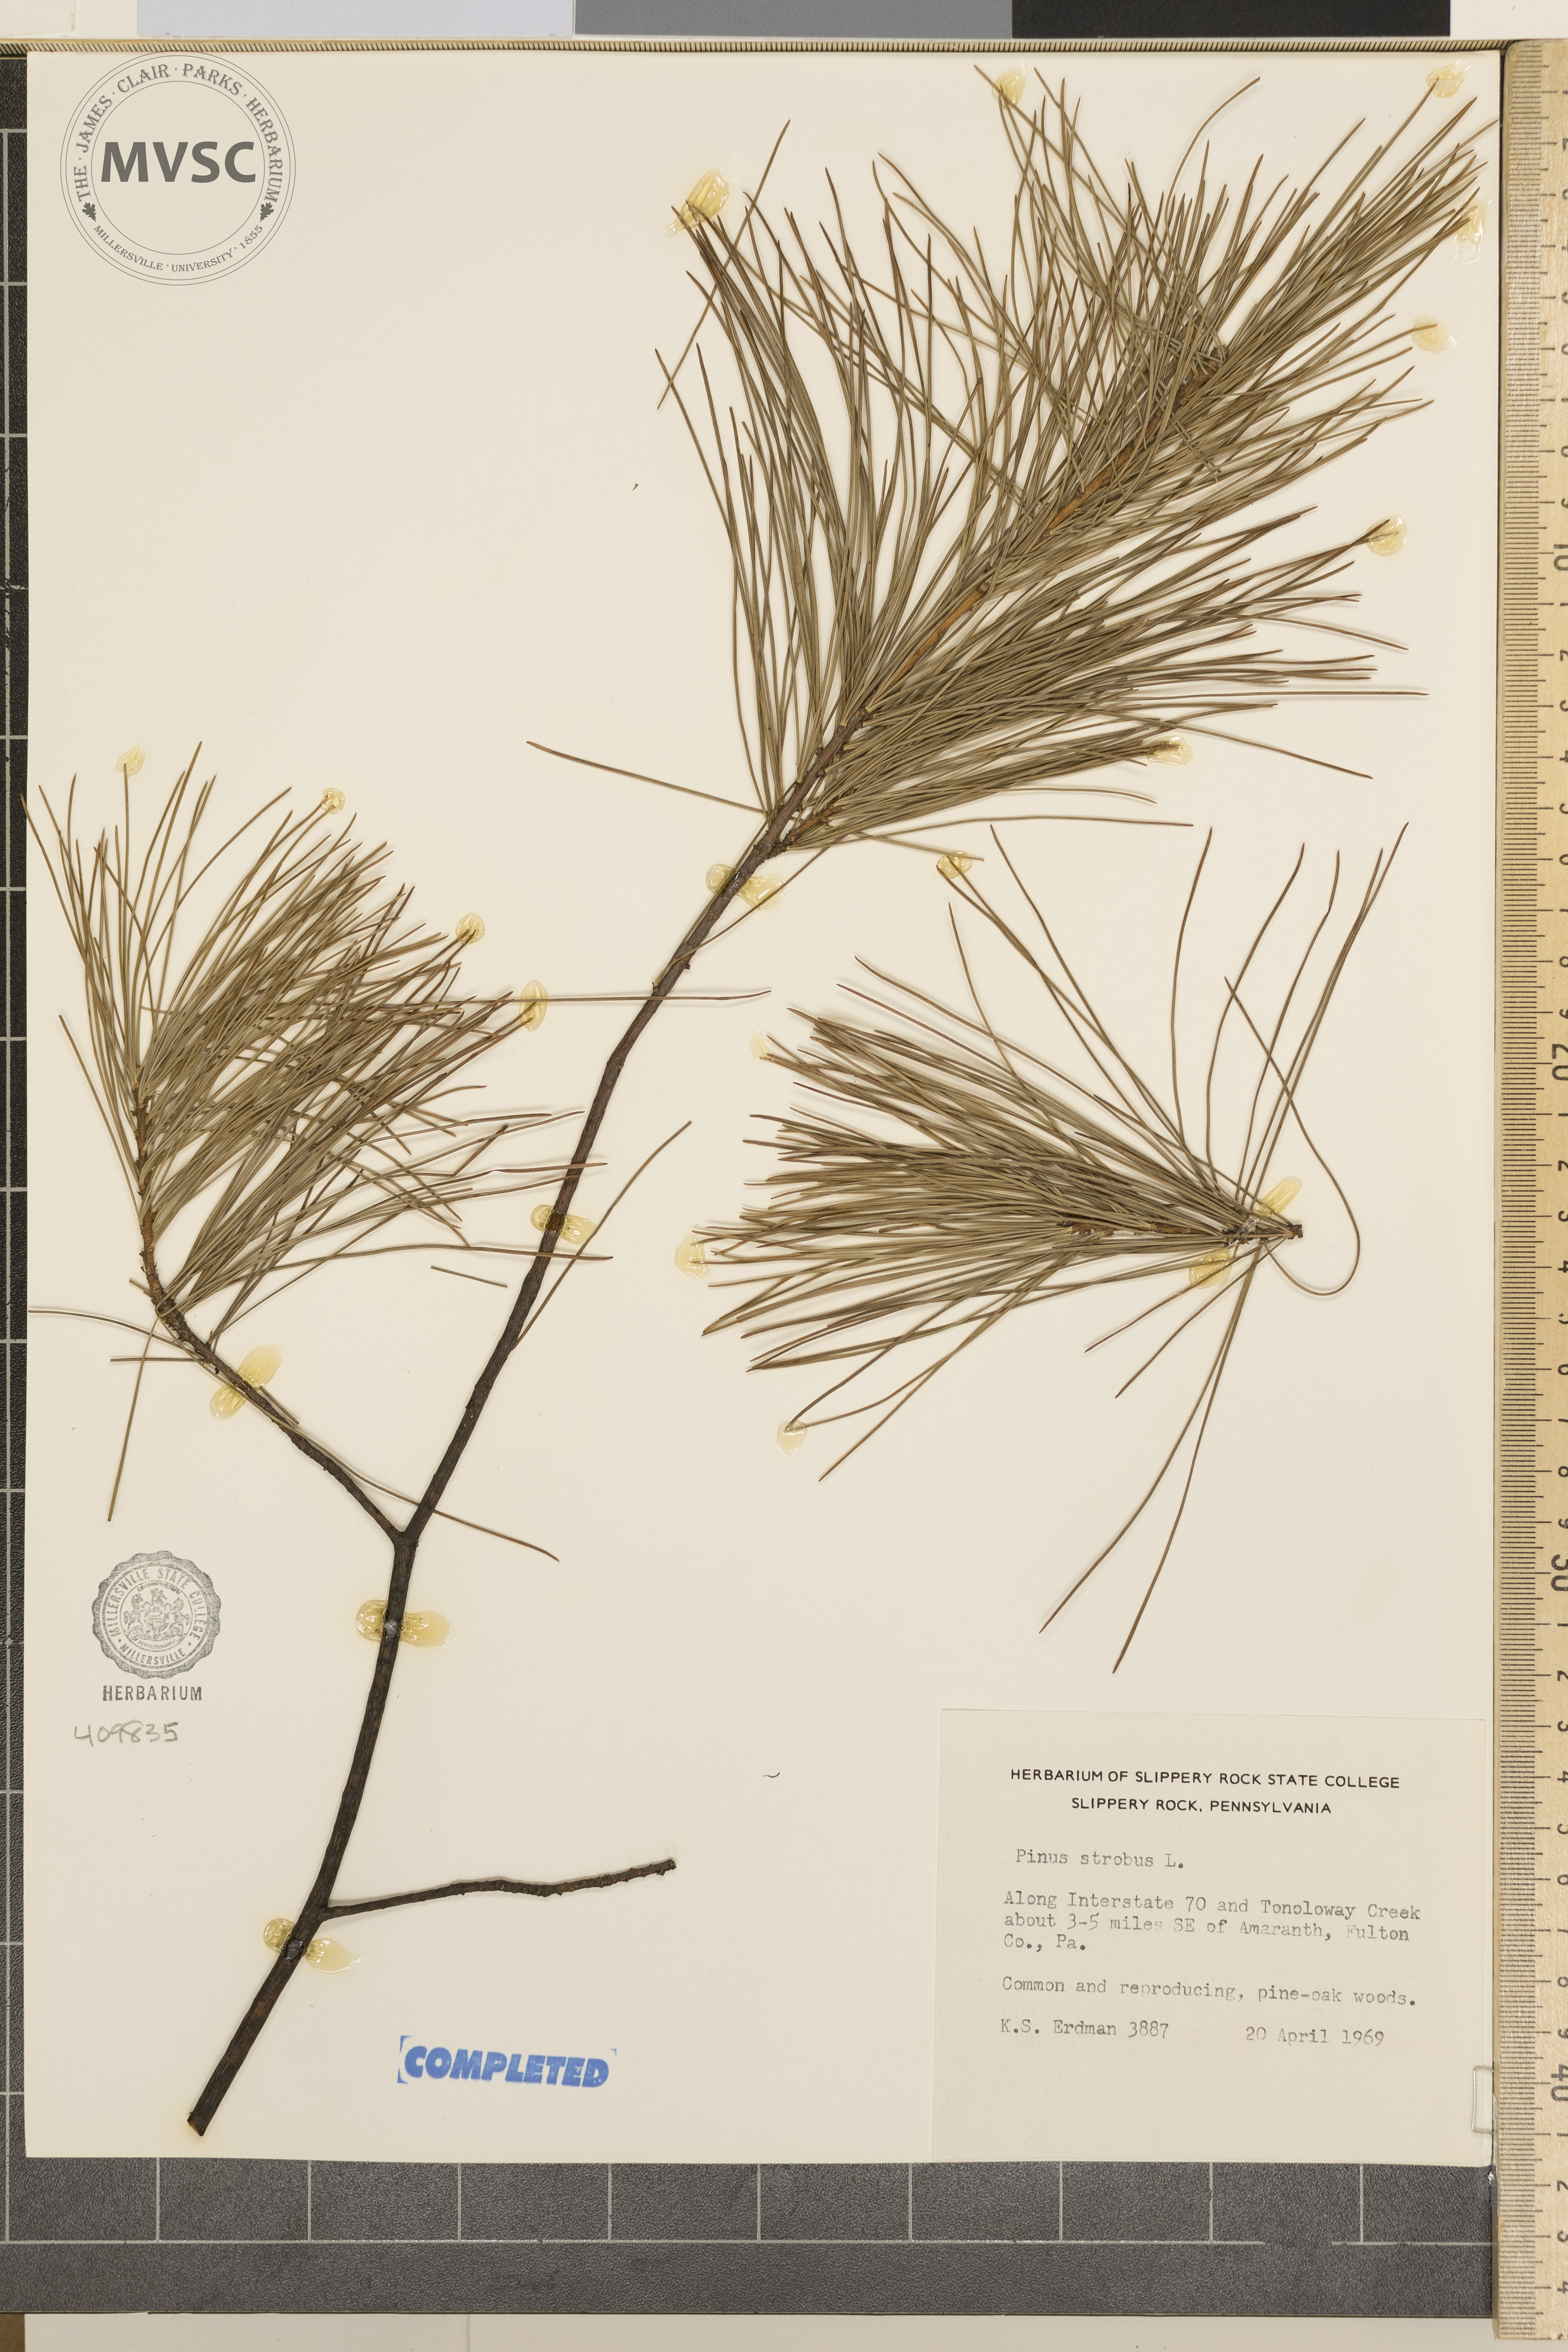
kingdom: Plantae
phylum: Tracheophyta
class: Pinopsida
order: Pinales
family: Pinaceae
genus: Pinus
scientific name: Pinus strobus
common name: Weymouth pine
